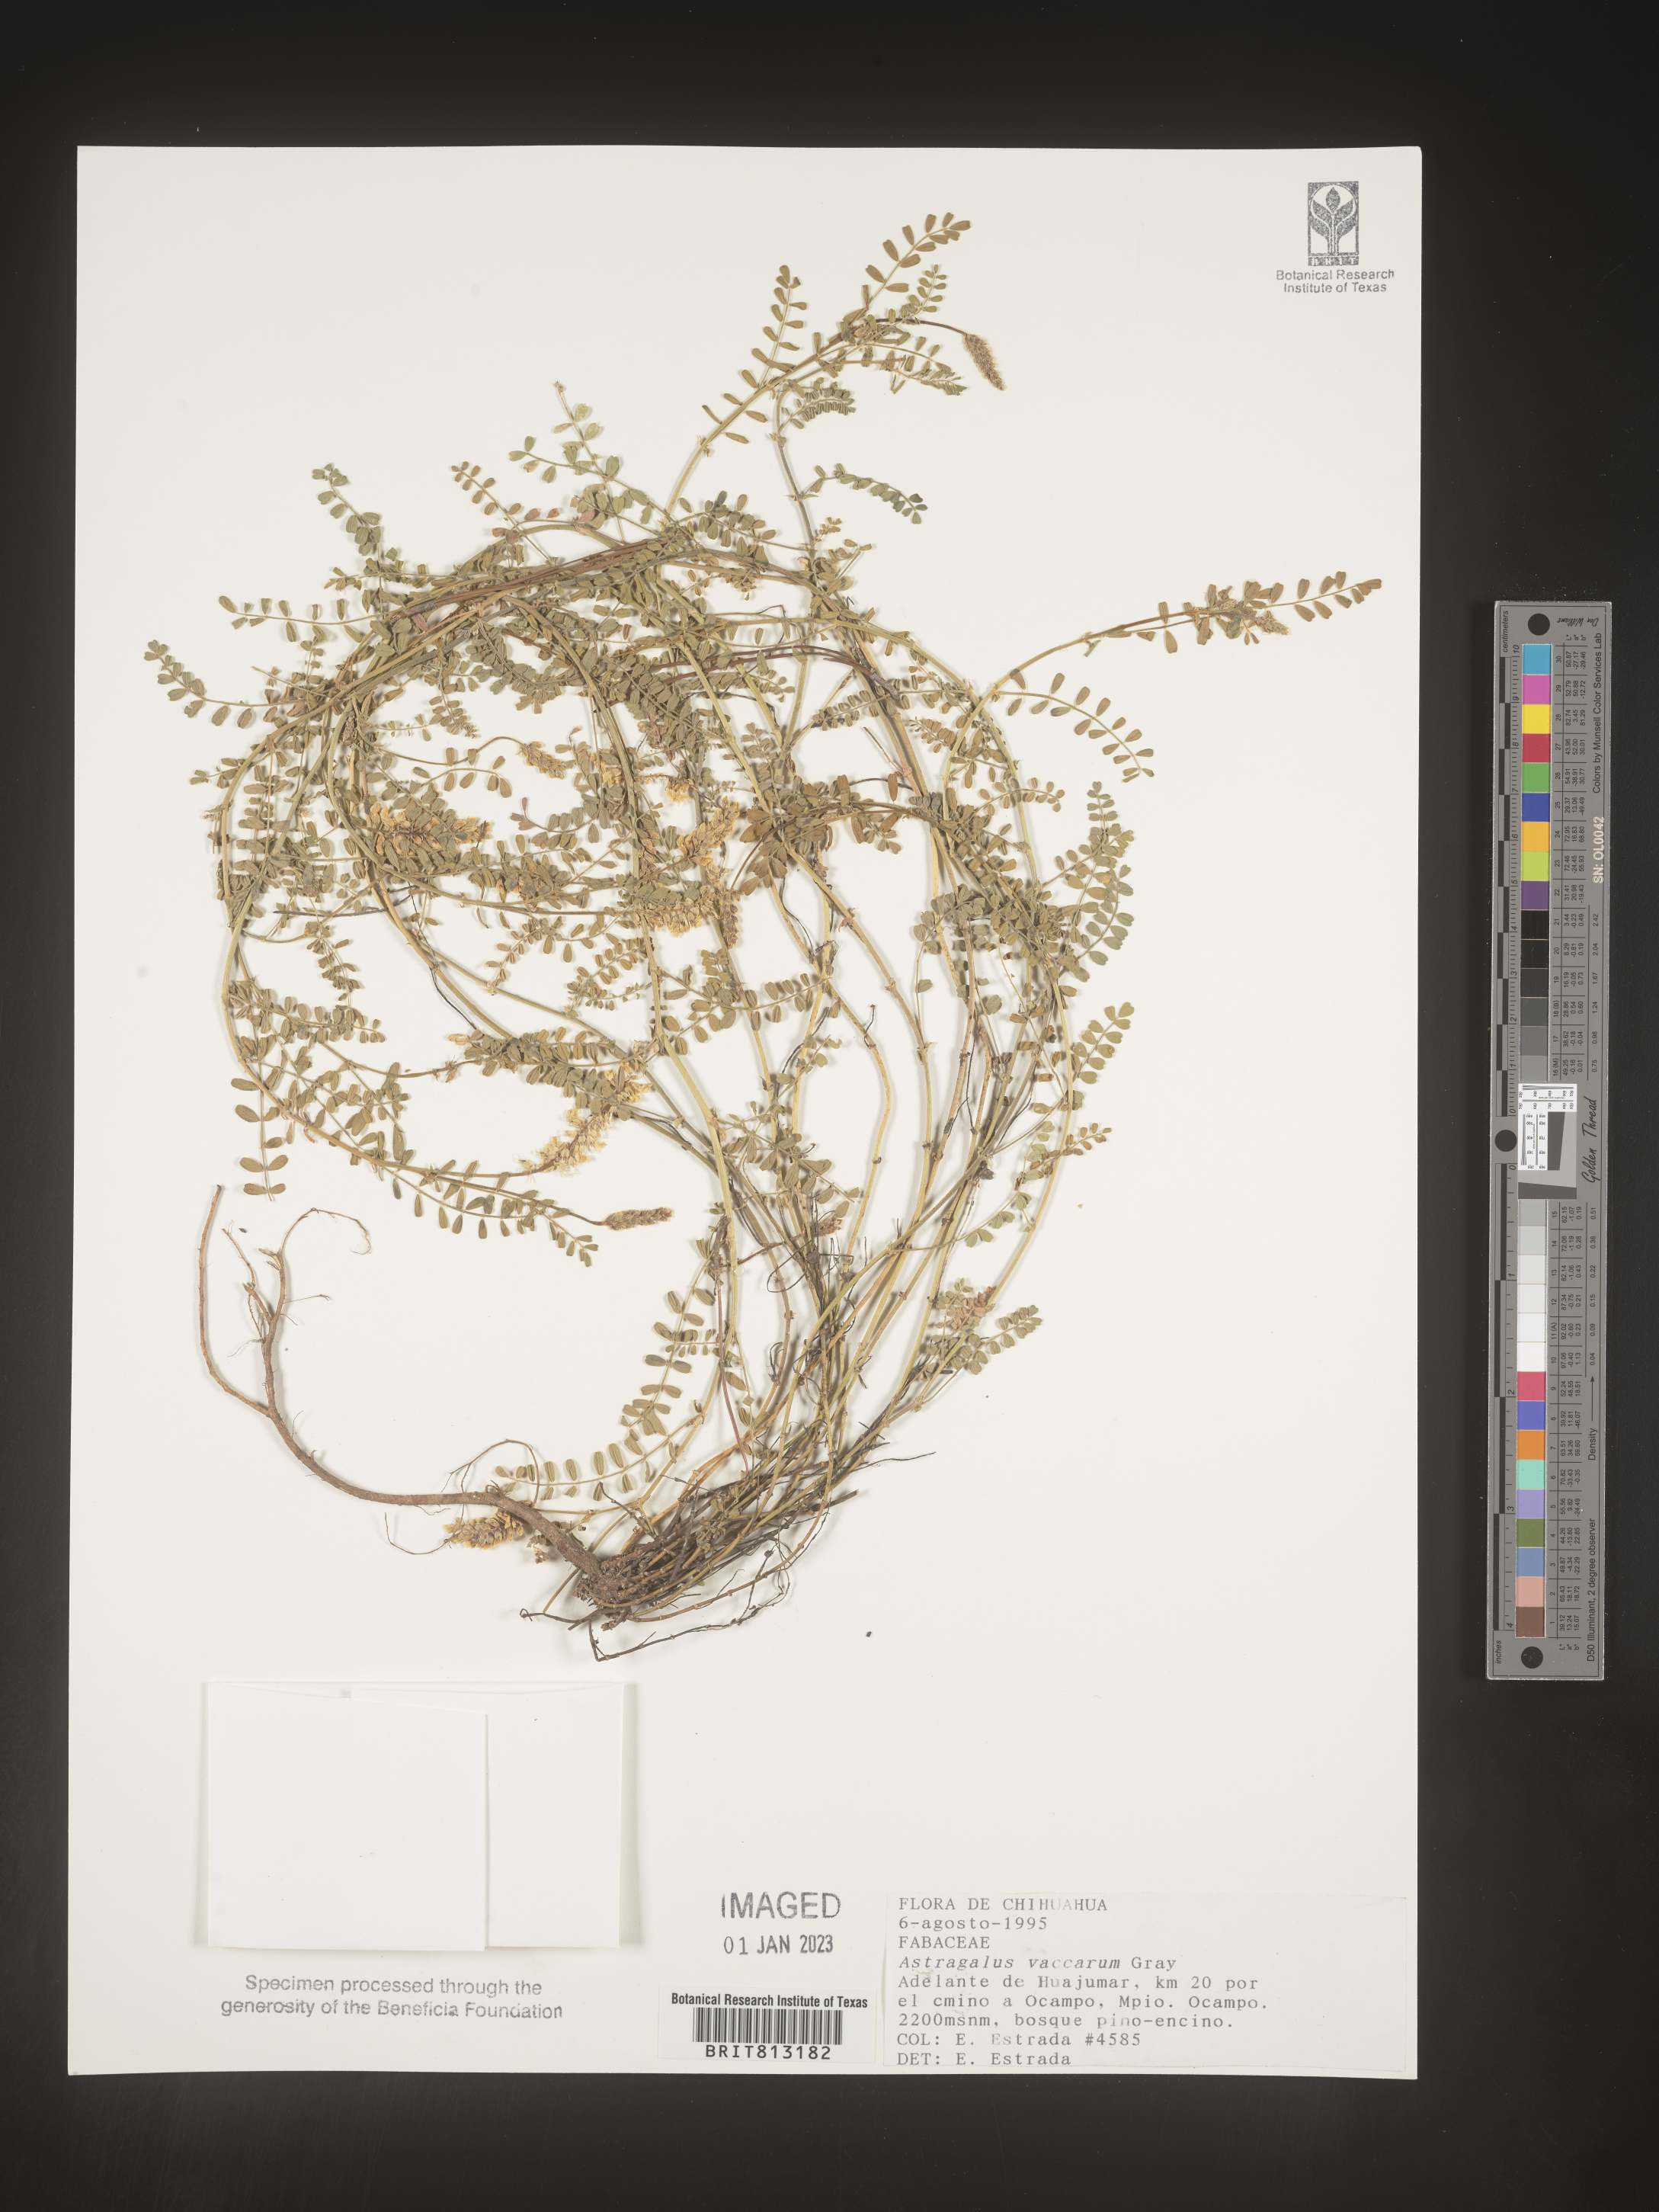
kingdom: Plantae
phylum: Tracheophyta
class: Magnoliopsida
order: Fabales
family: Fabaceae
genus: Astragalus
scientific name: Astragalus
